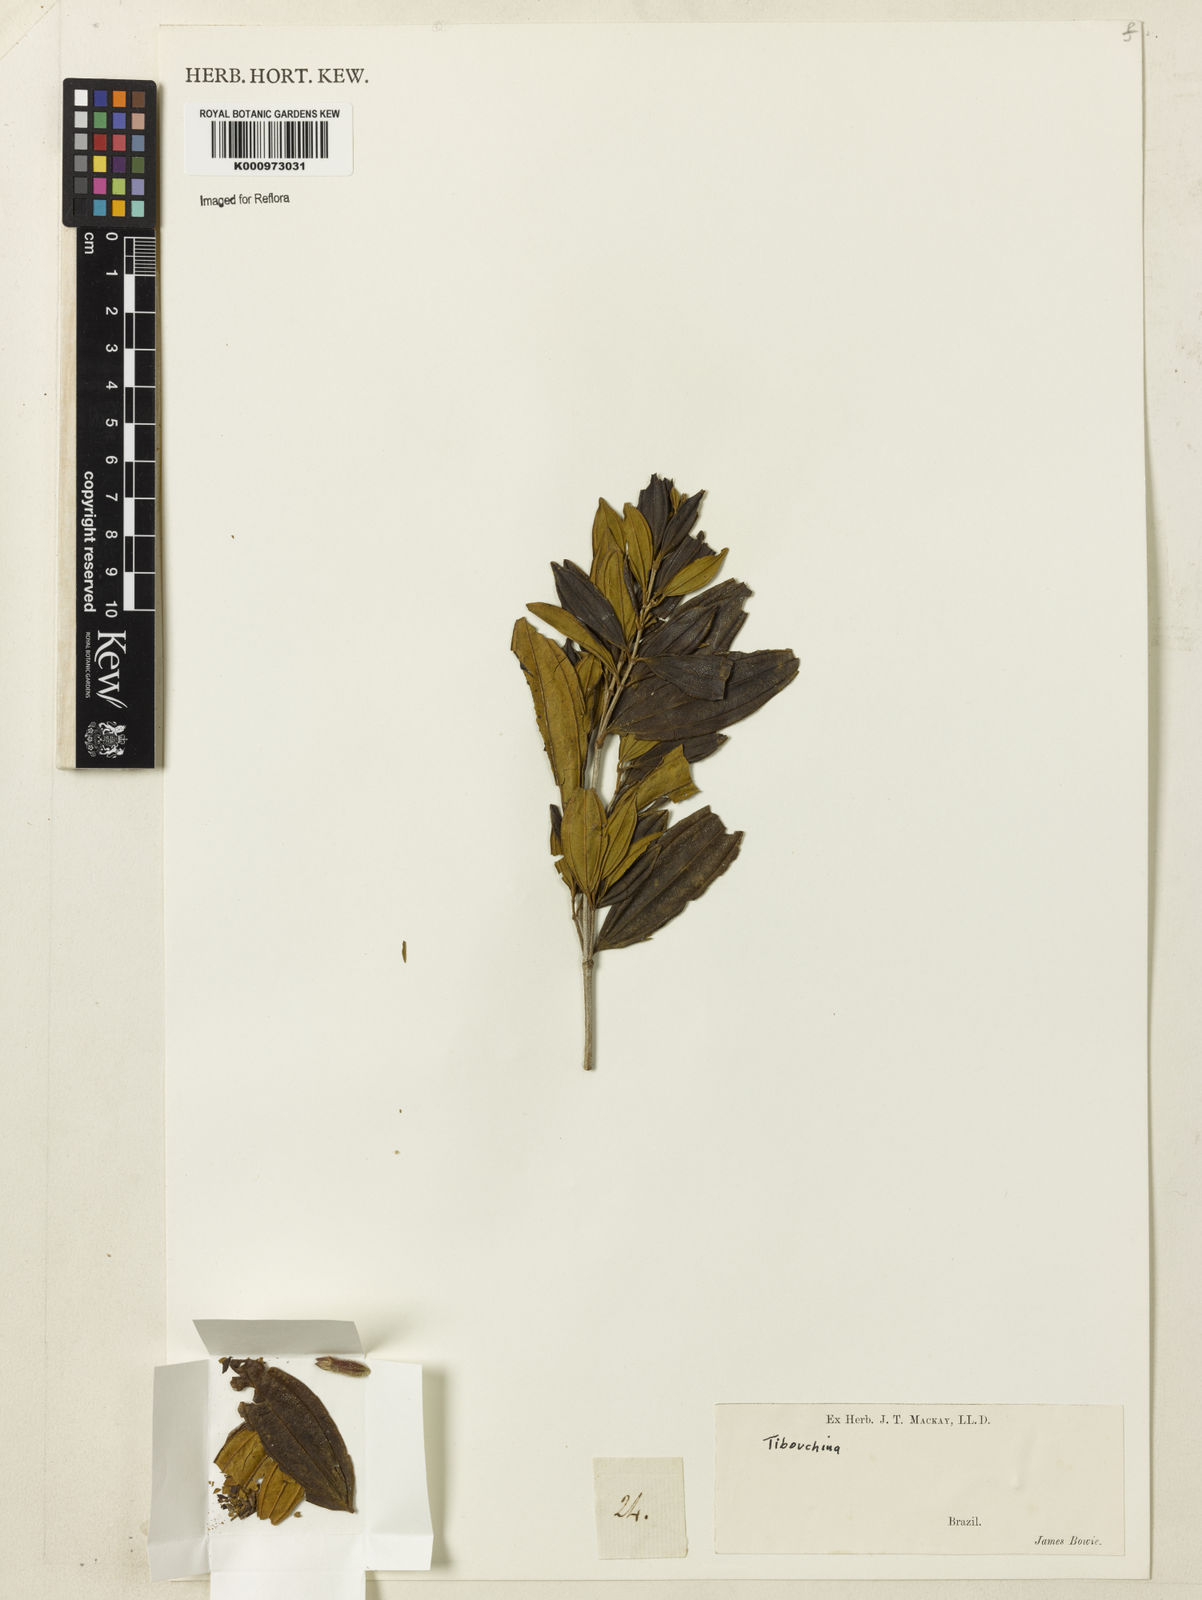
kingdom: Plantae
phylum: Tracheophyta
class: Magnoliopsida
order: Myrtales
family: Melastomataceae
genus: Tibouchina
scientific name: Tibouchina
